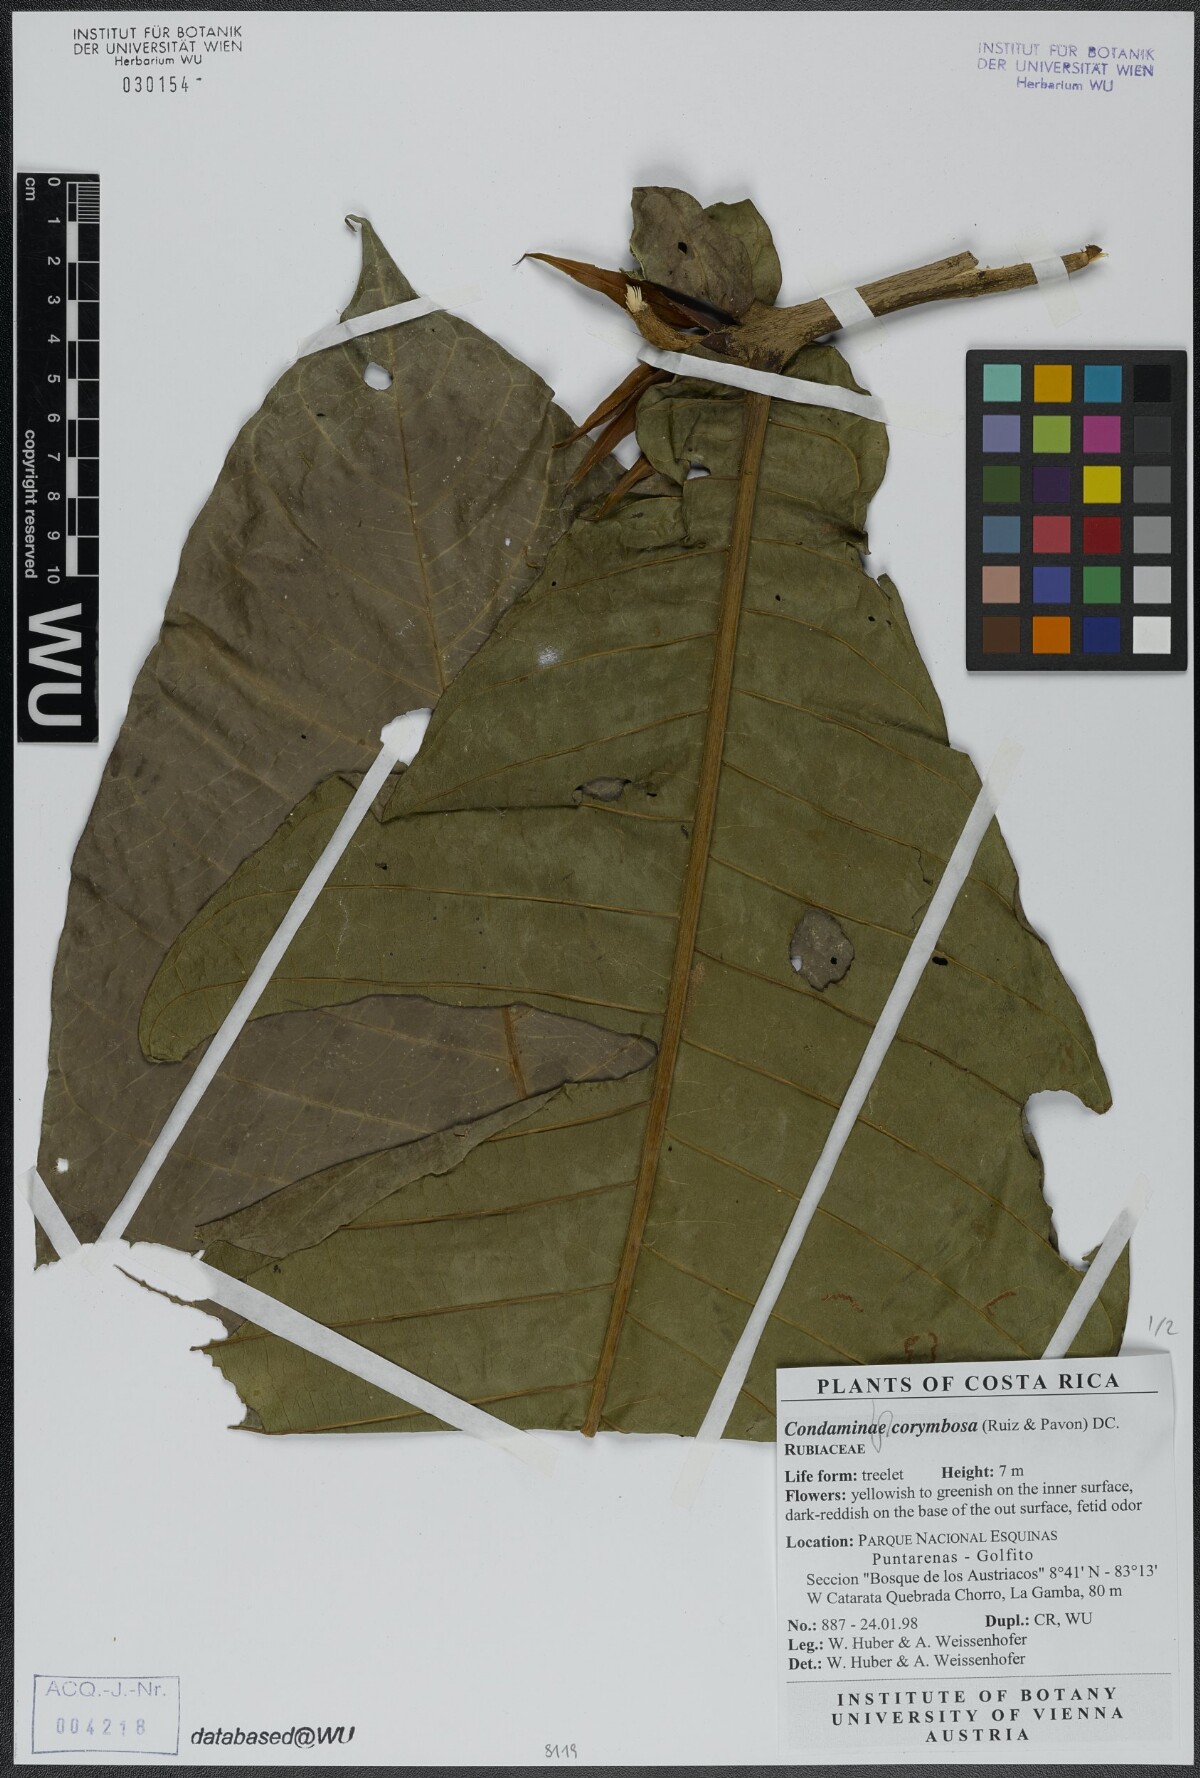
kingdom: Plantae
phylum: Tracheophyta
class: Magnoliopsida
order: Gentianales
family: Rubiaceae
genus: Condaminea
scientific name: Condaminea corymbosa
